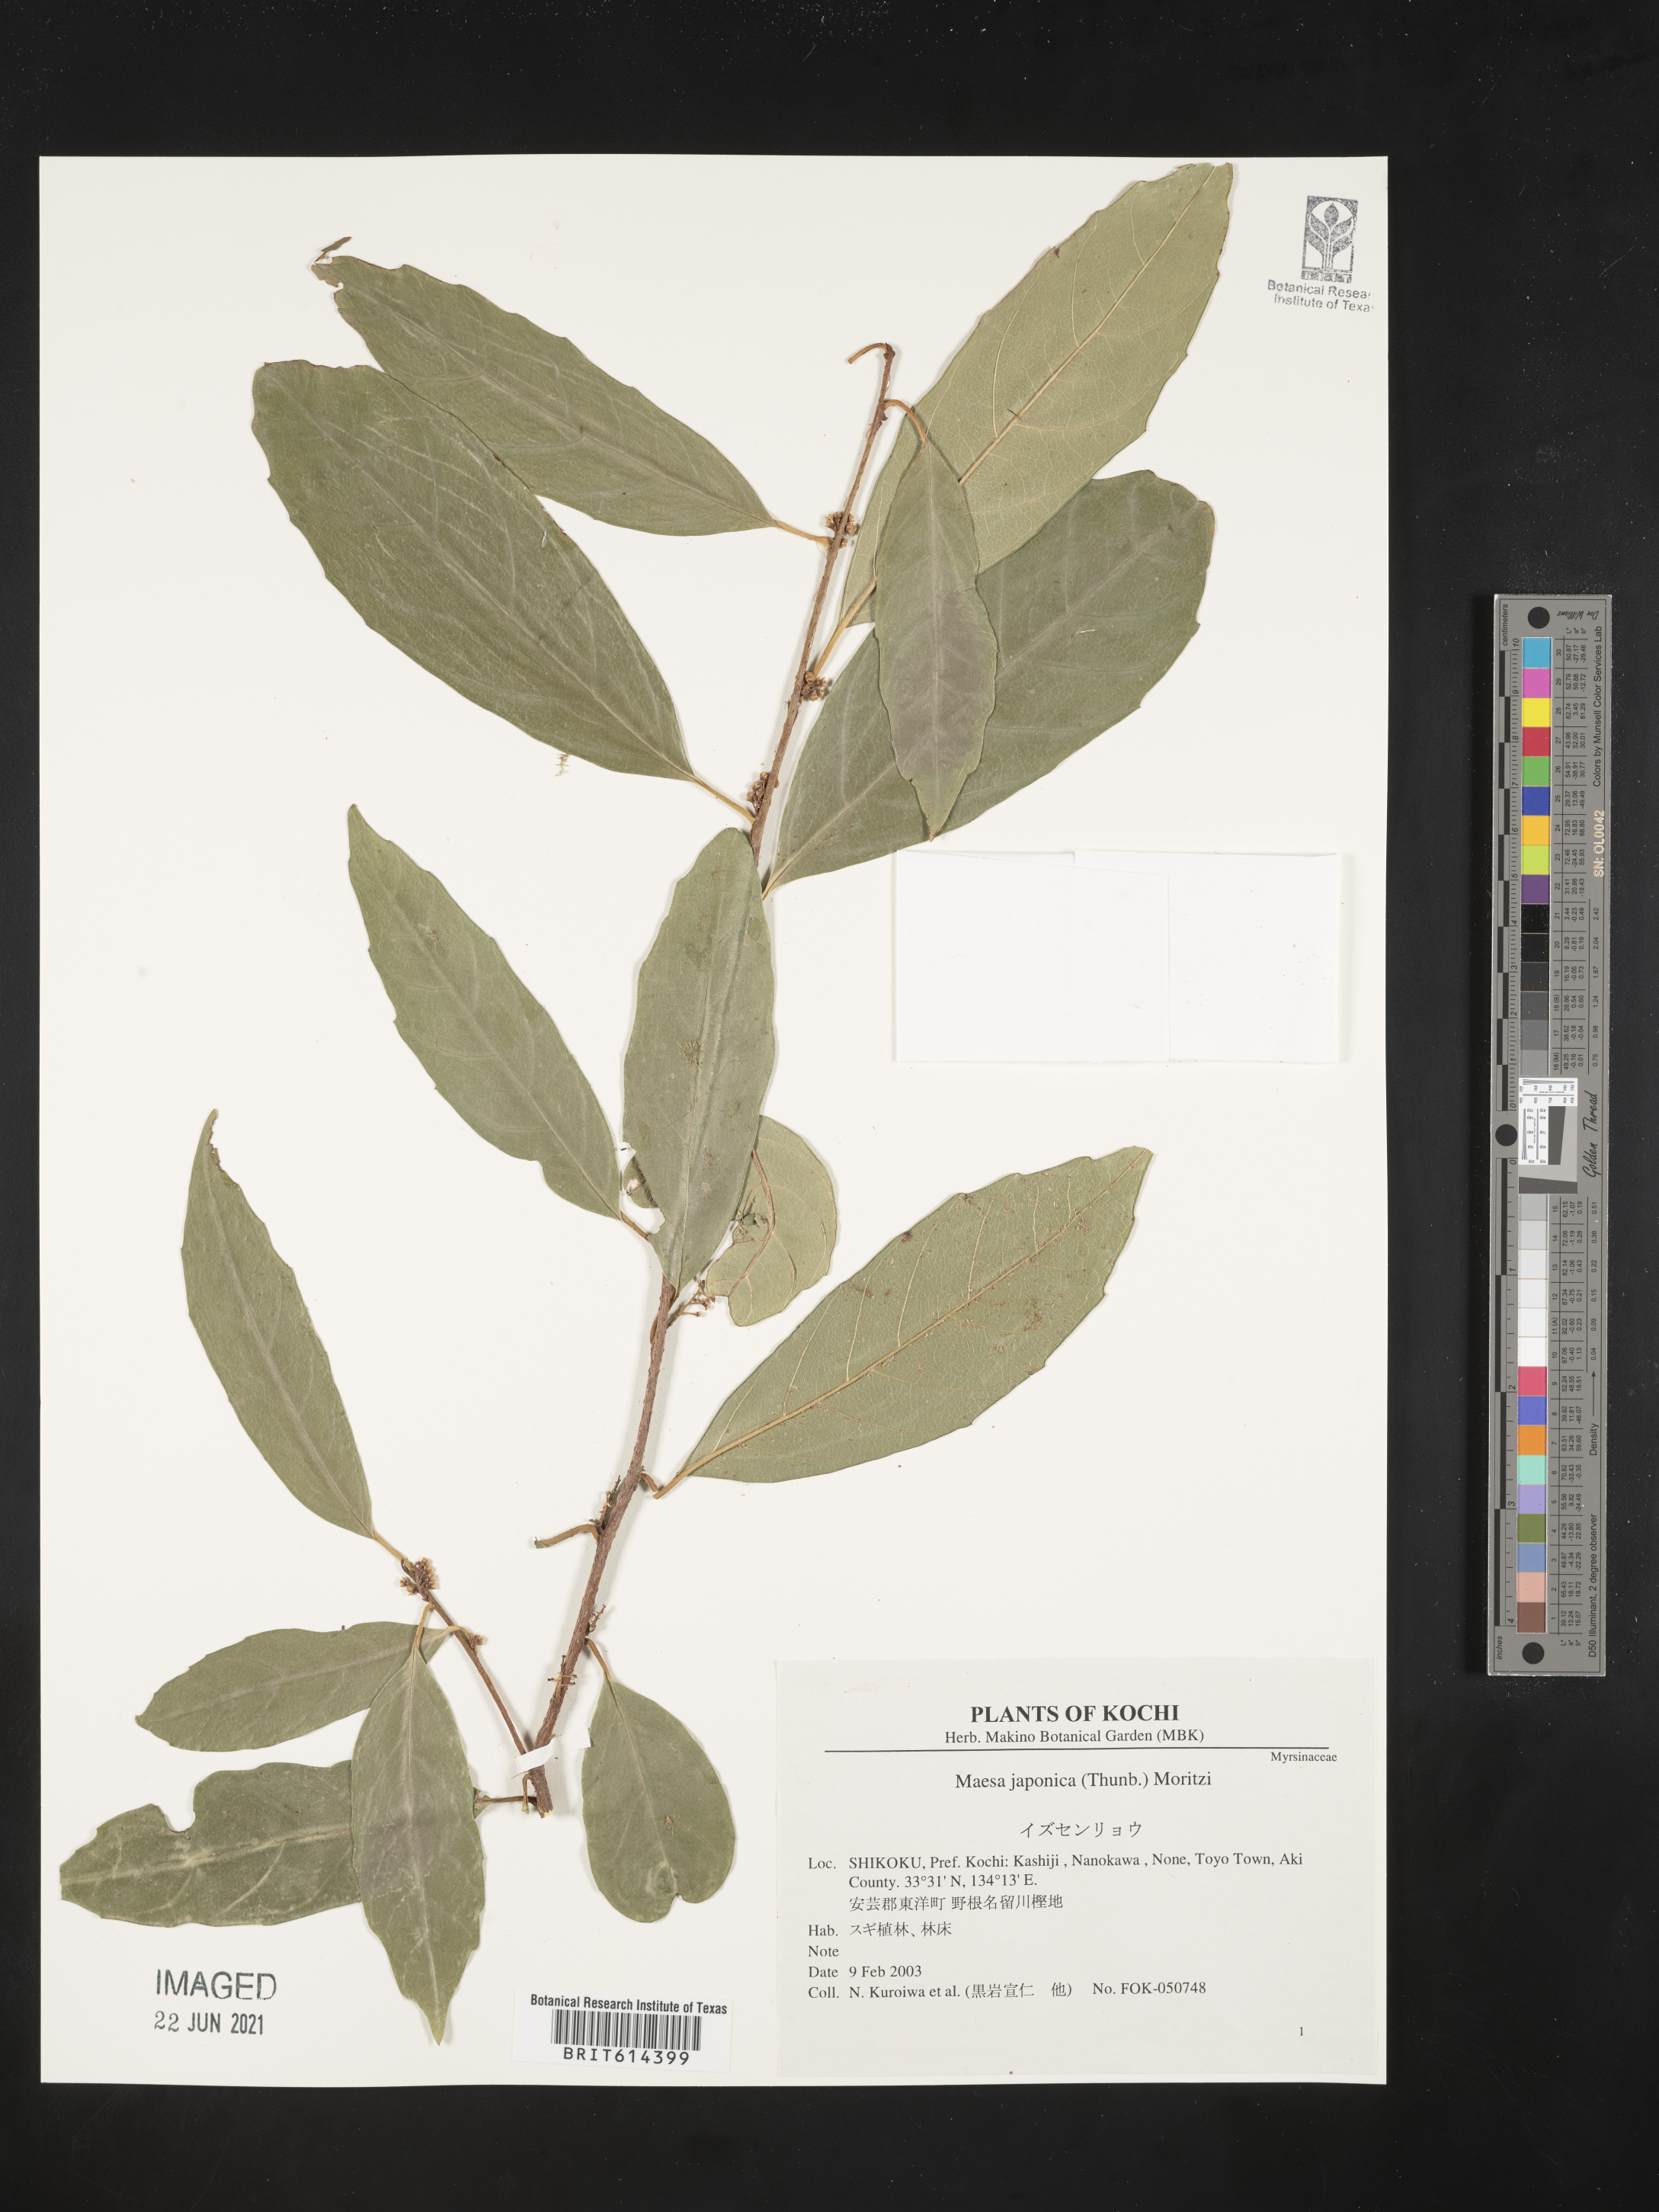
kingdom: Plantae
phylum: Tracheophyta
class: Magnoliopsida
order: Ericales
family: Primulaceae
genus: Maesa
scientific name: Maesa japonica
